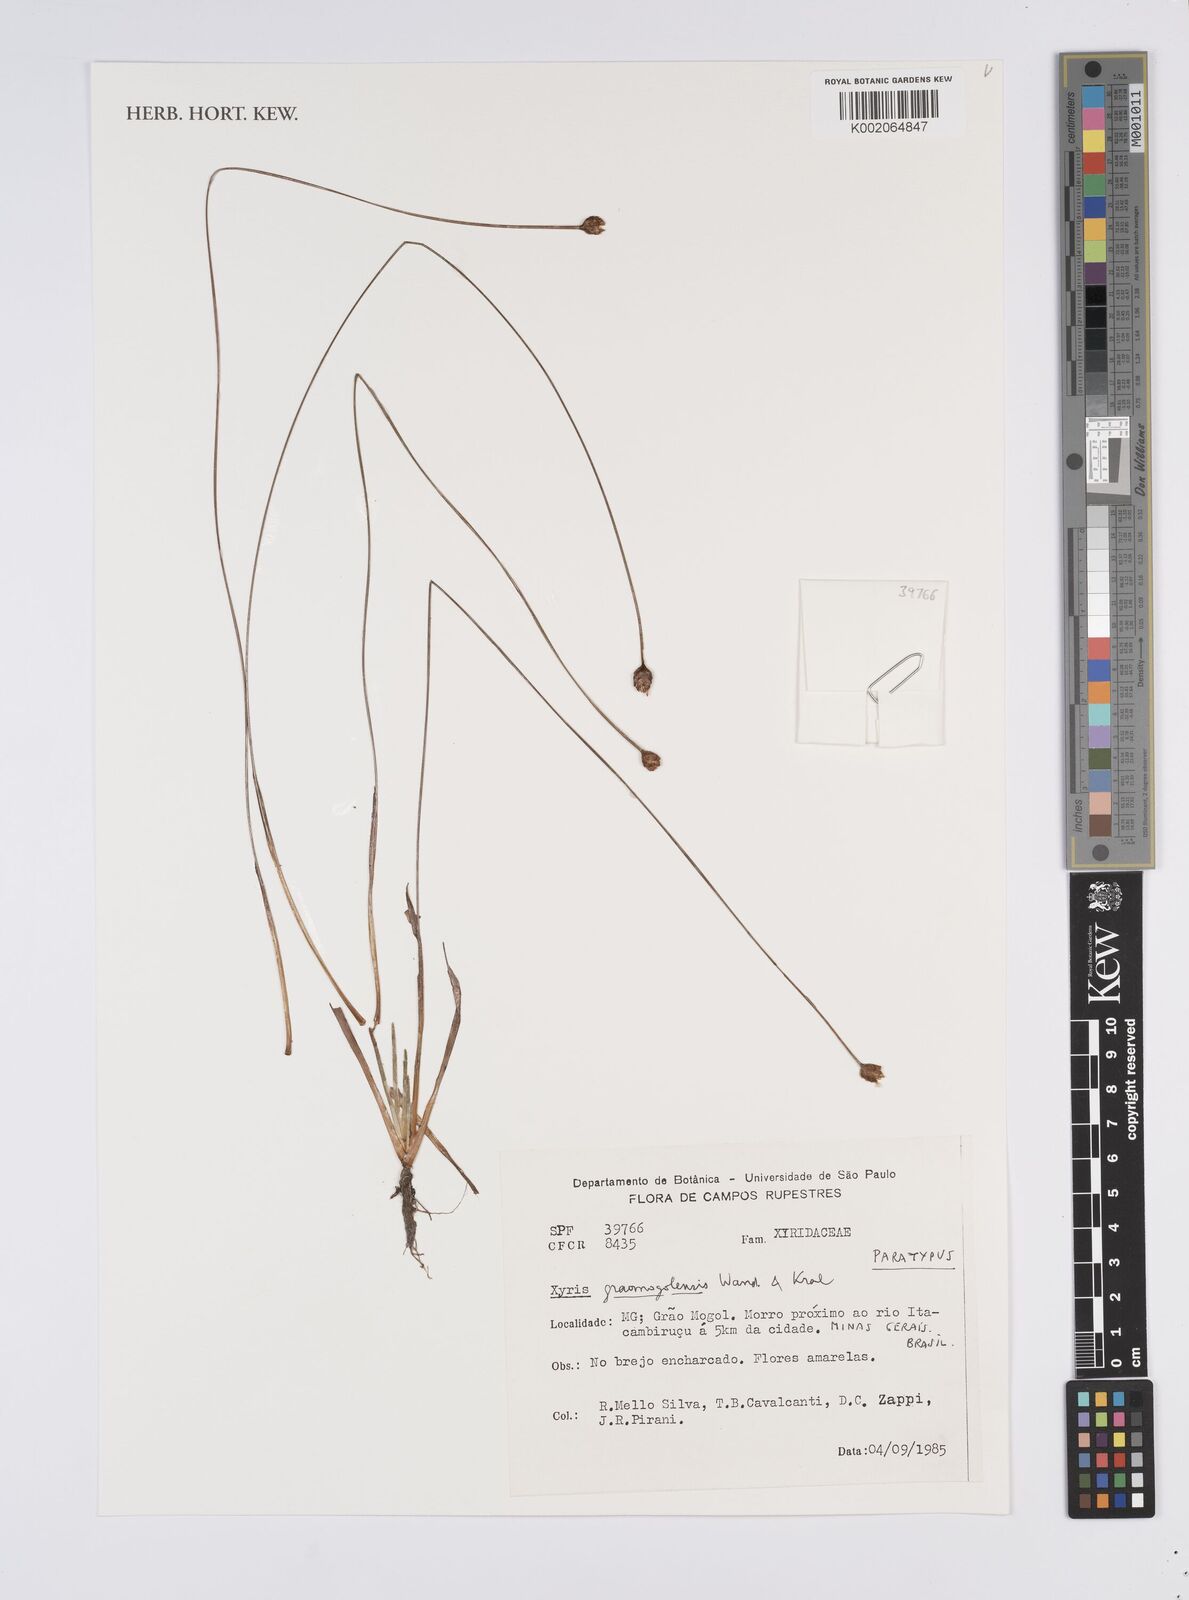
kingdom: Plantae
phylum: Tracheophyta
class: Liliopsida
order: Poales
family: Xyridaceae
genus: Xyris
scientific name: Xyris graomogolensis
